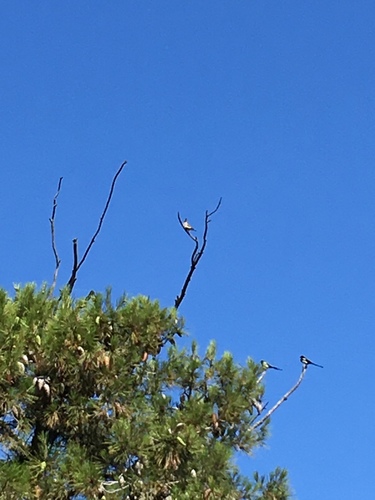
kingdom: Animalia
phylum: Chordata
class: Aves
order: Bucerotiformes
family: Upupidae
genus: Upupa
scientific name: Upupa epops
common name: Eurasian hoopoe
